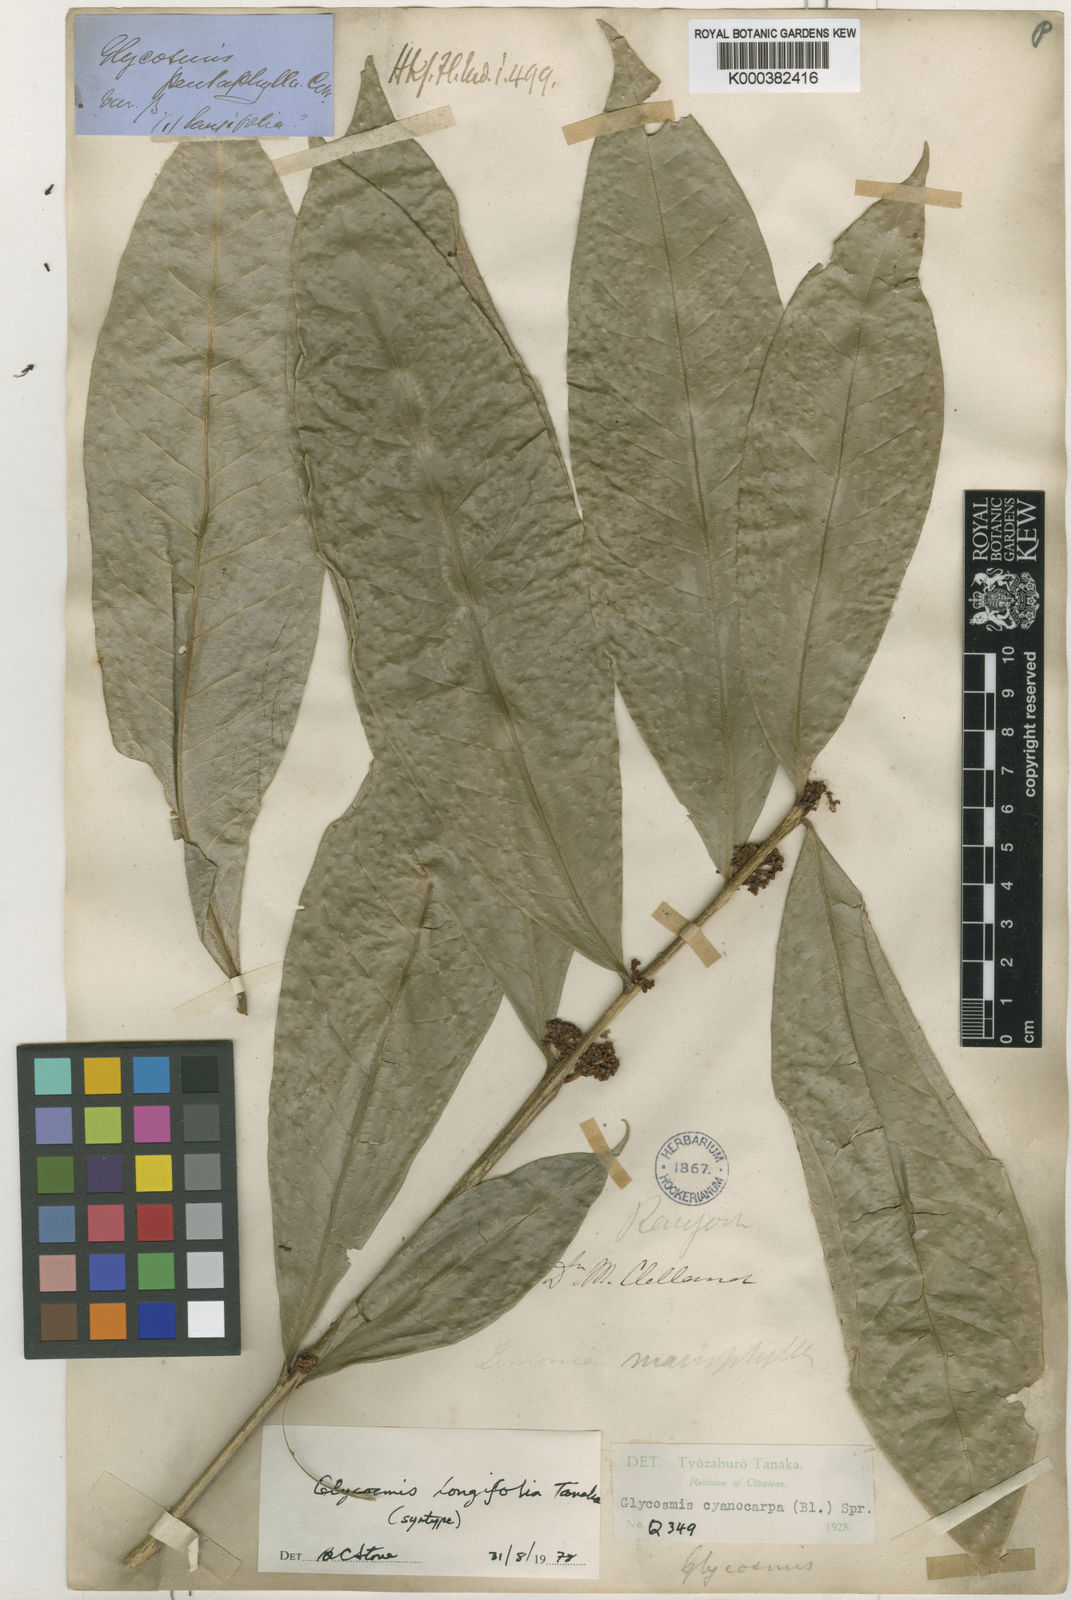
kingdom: Plantae
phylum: Tracheophyta
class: Magnoliopsida
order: Sapindales
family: Rutaceae
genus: Glycosmis
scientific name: Glycosmis cyanocarpa
